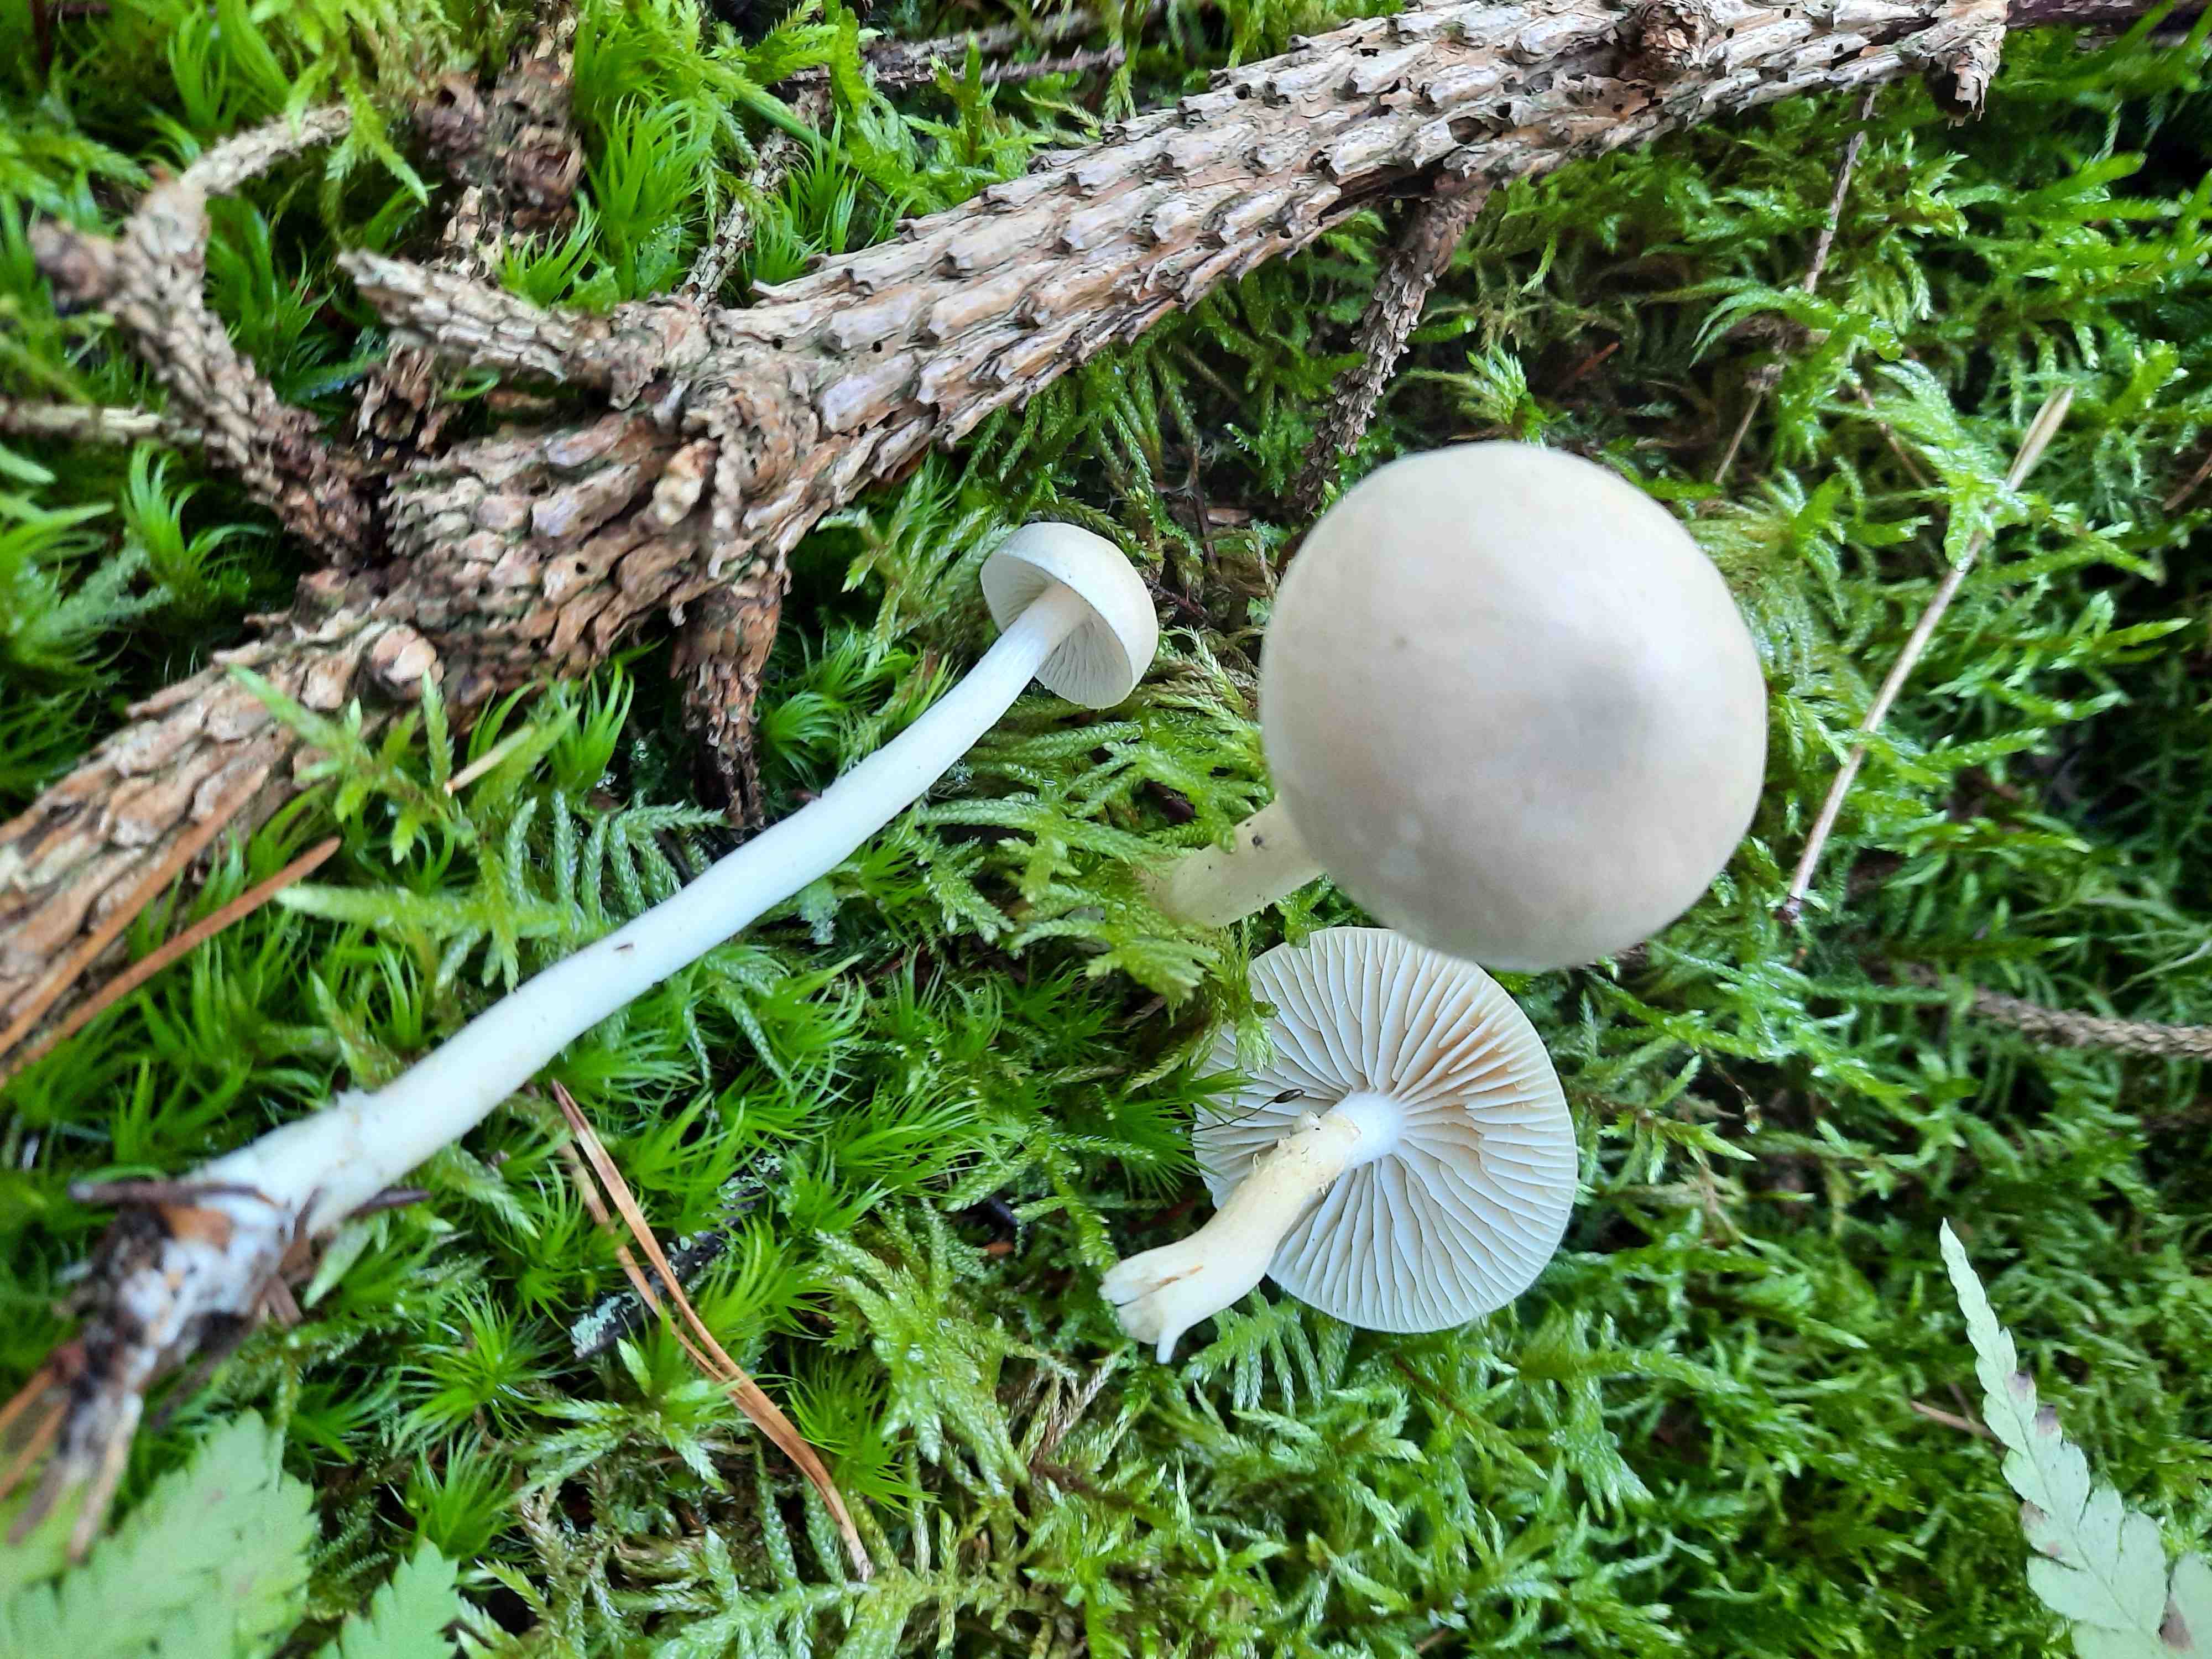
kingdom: Fungi
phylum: Basidiomycota
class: Agaricomycetes
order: Agaricales
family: Tricholomataceae
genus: Tricholoma
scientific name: Tricholoma inamoenum
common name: højstokket ridderhat
